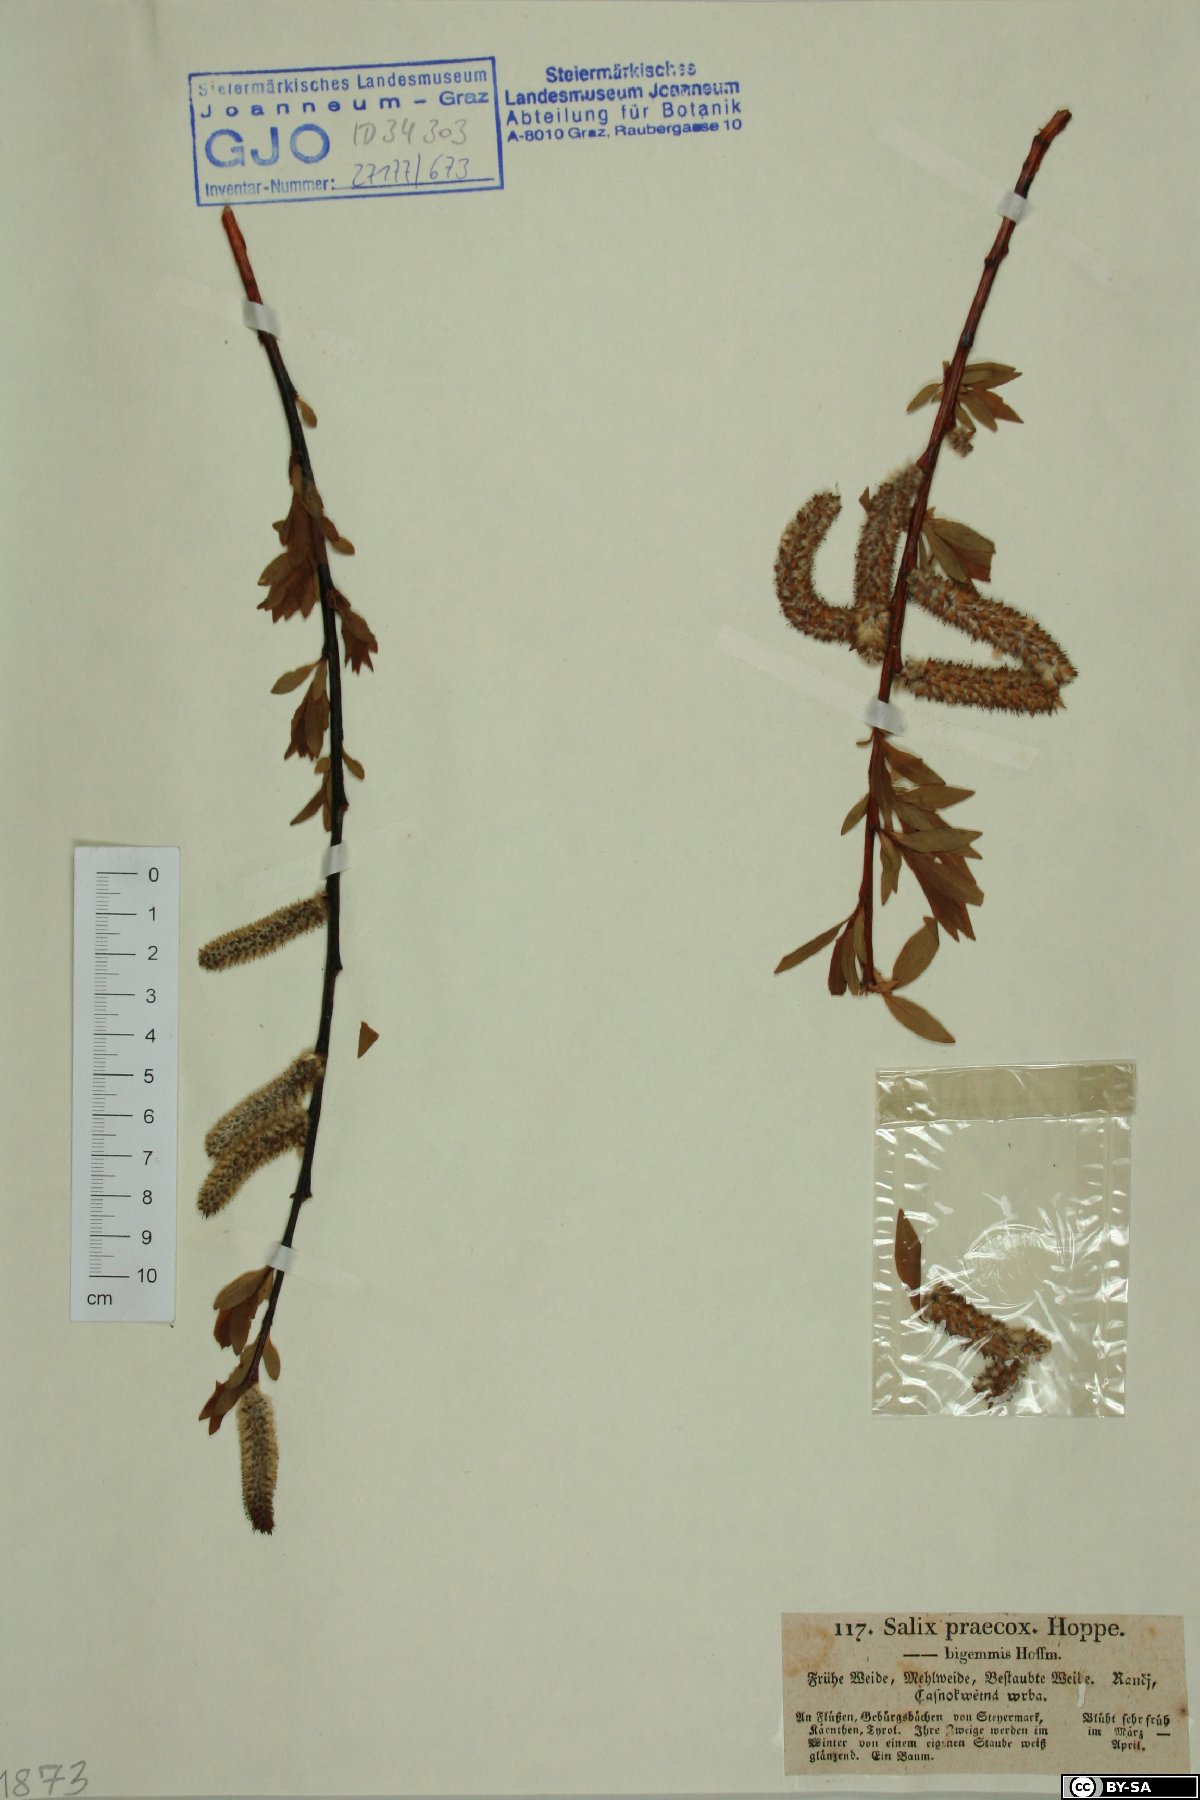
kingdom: Plantae
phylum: Tracheophyta
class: Magnoliopsida
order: Malpighiales
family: Salicaceae
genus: Salix
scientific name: Salix daphnoides
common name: European violet-willow
